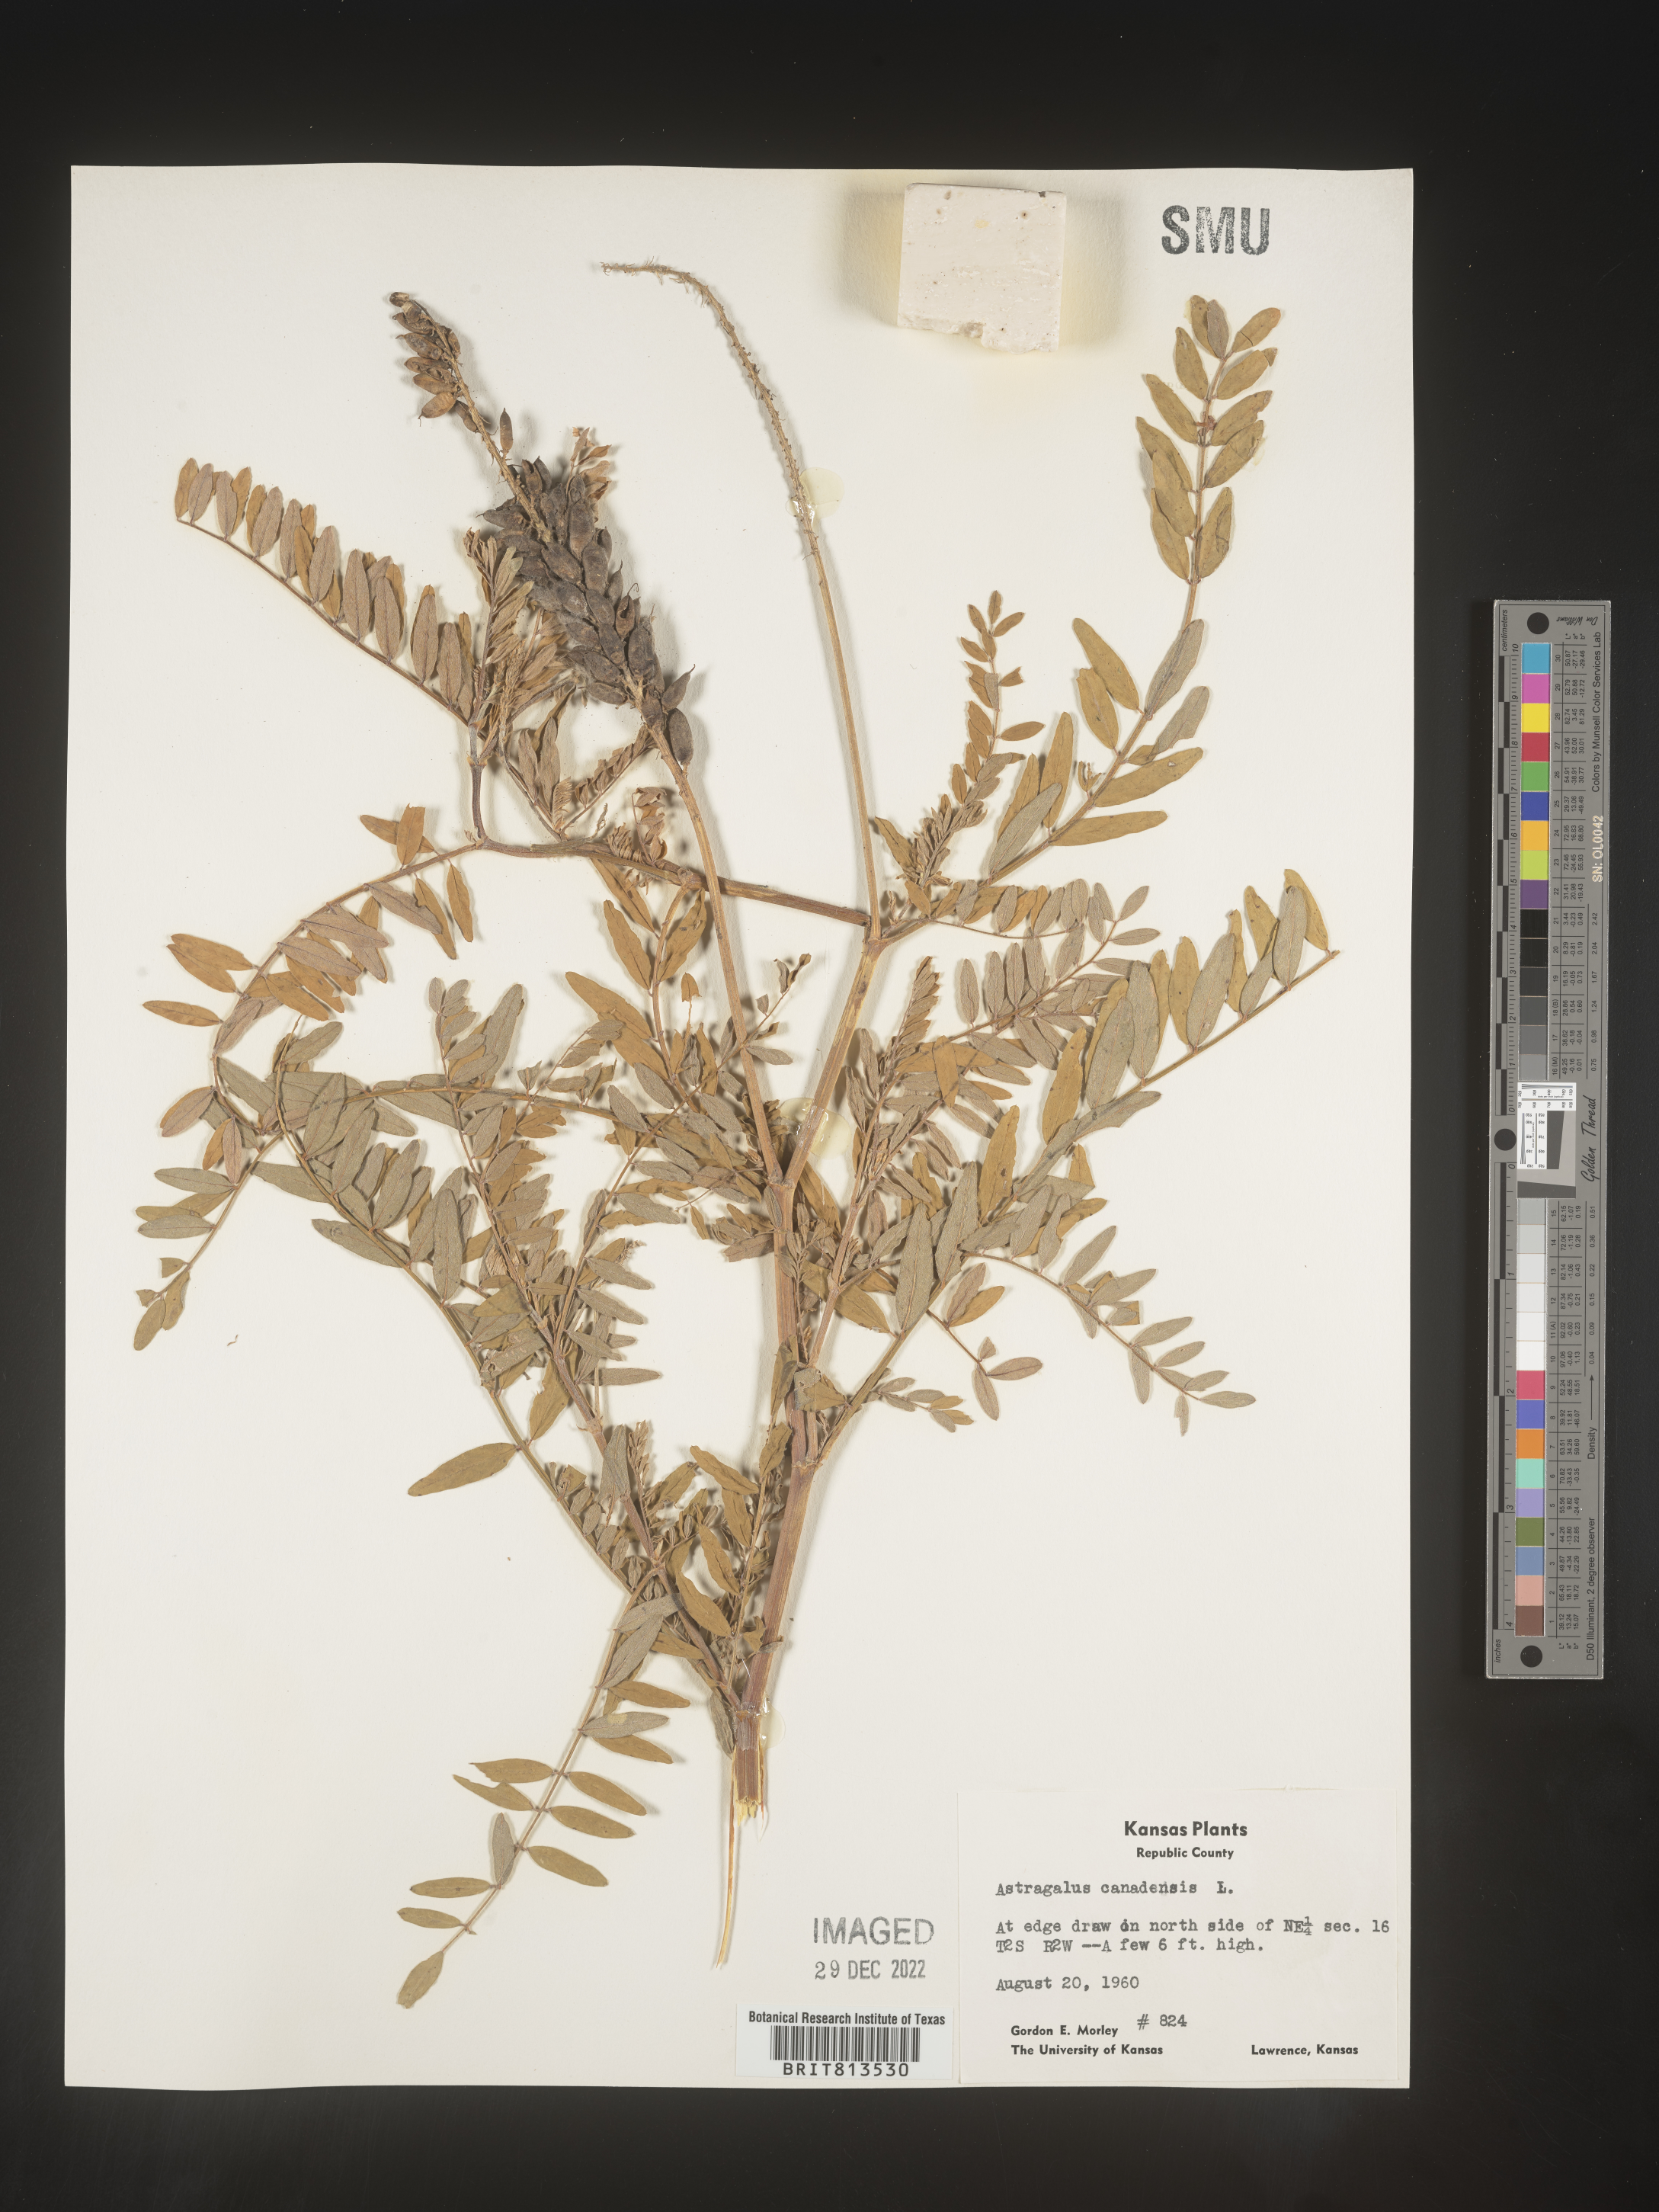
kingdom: Plantae
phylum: Tracheophyta
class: Magnoliopsida
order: Fabales
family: Fabaceae
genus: Astragalus
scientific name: Astragalus canadensis
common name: Canada milk-vetch
